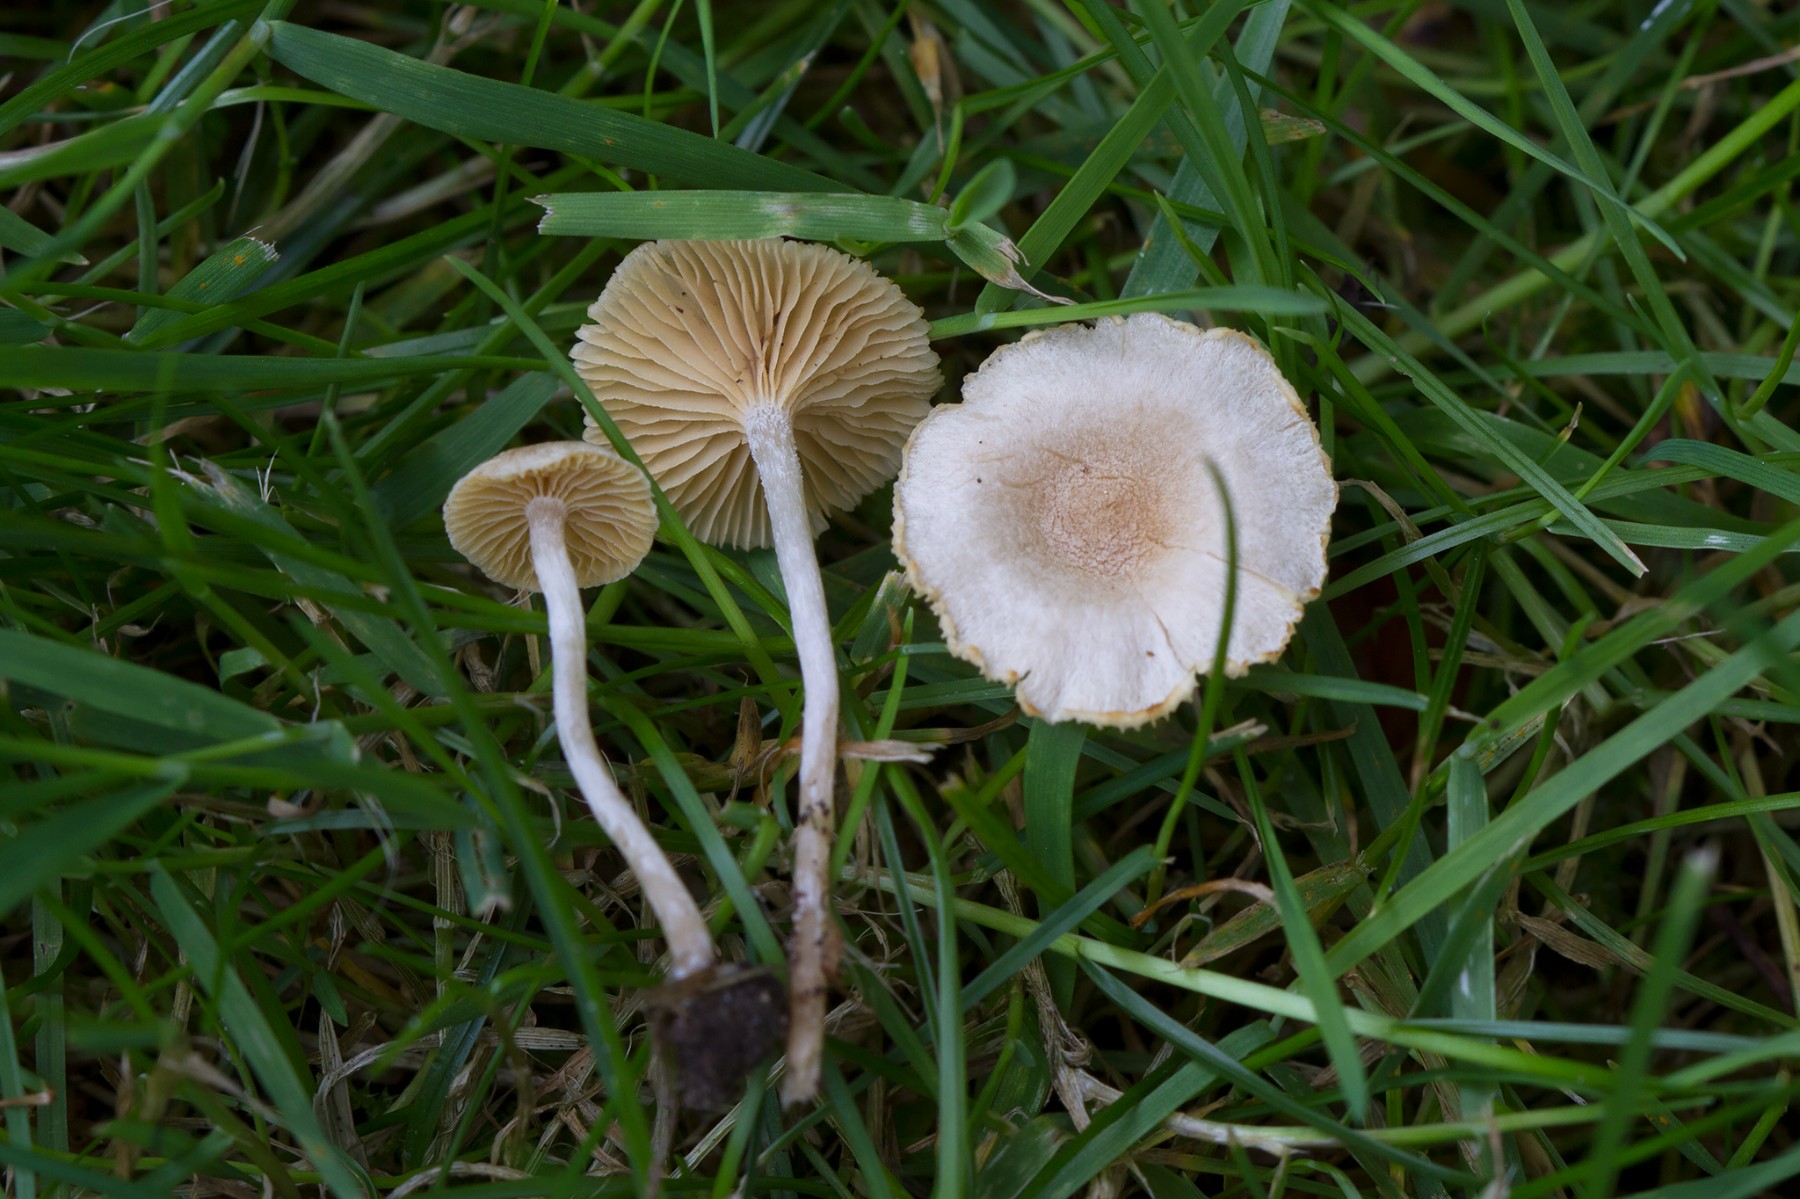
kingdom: Fungi
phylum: Basidiomycota
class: Agaricomycetes
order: Agaricales
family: Tubariaceae
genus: Tubaria
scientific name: Tubaria dispersa
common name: tjørne-fnughat
